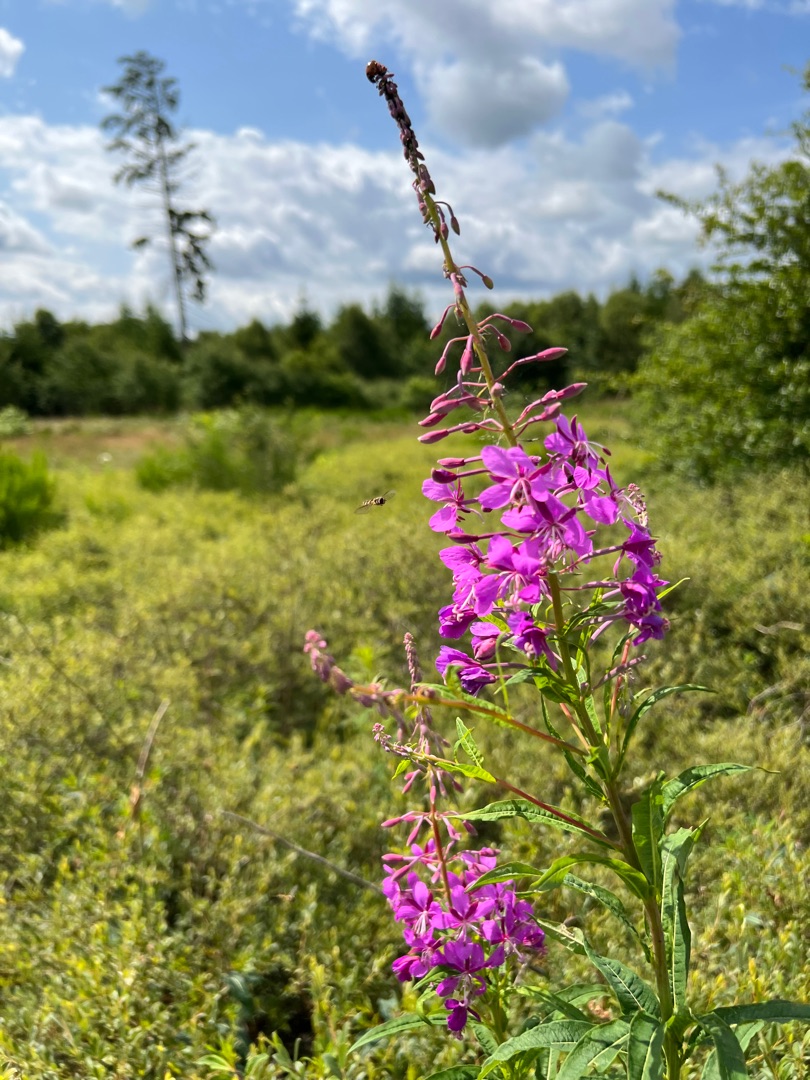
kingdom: Plantae
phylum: Tracheophyta
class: Magnoliopsida
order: Myrtales
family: Onagraceae
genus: Chamaenerion
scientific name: Chamaenerion angustifolium
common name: Gederams
